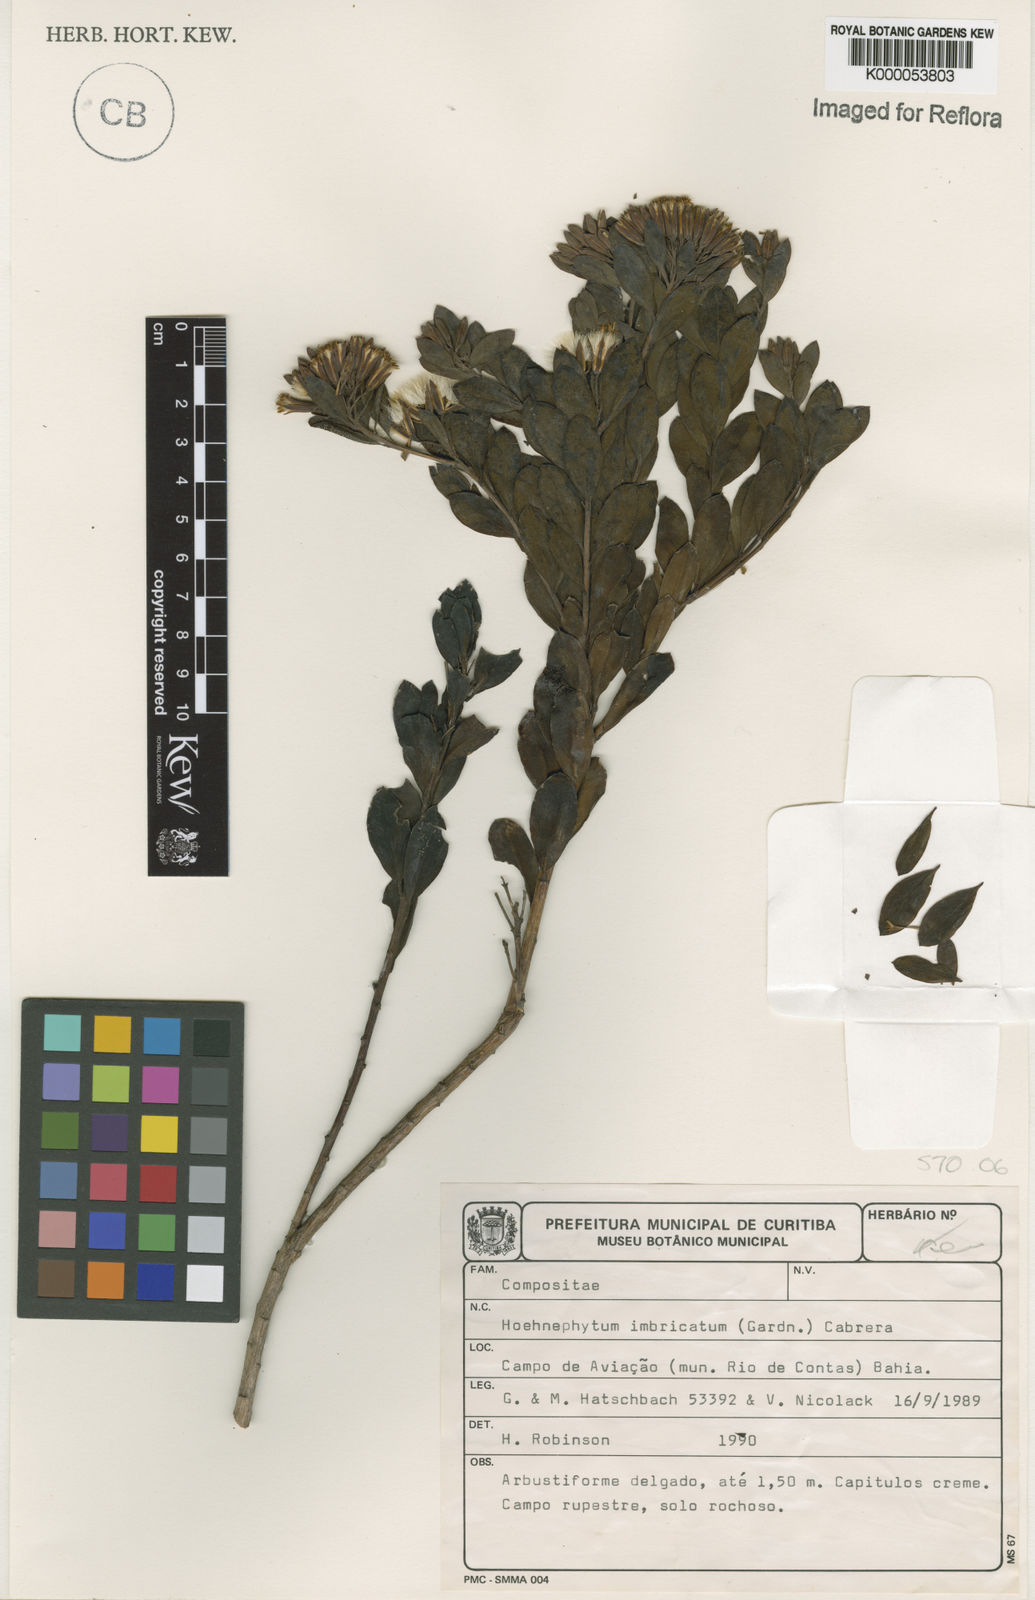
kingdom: Plantae
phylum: Tracheophyta
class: Magnoliopsida
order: Asterales
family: Asteraceae
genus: Hoehnephytum
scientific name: Hoehnephytum imbricatum
